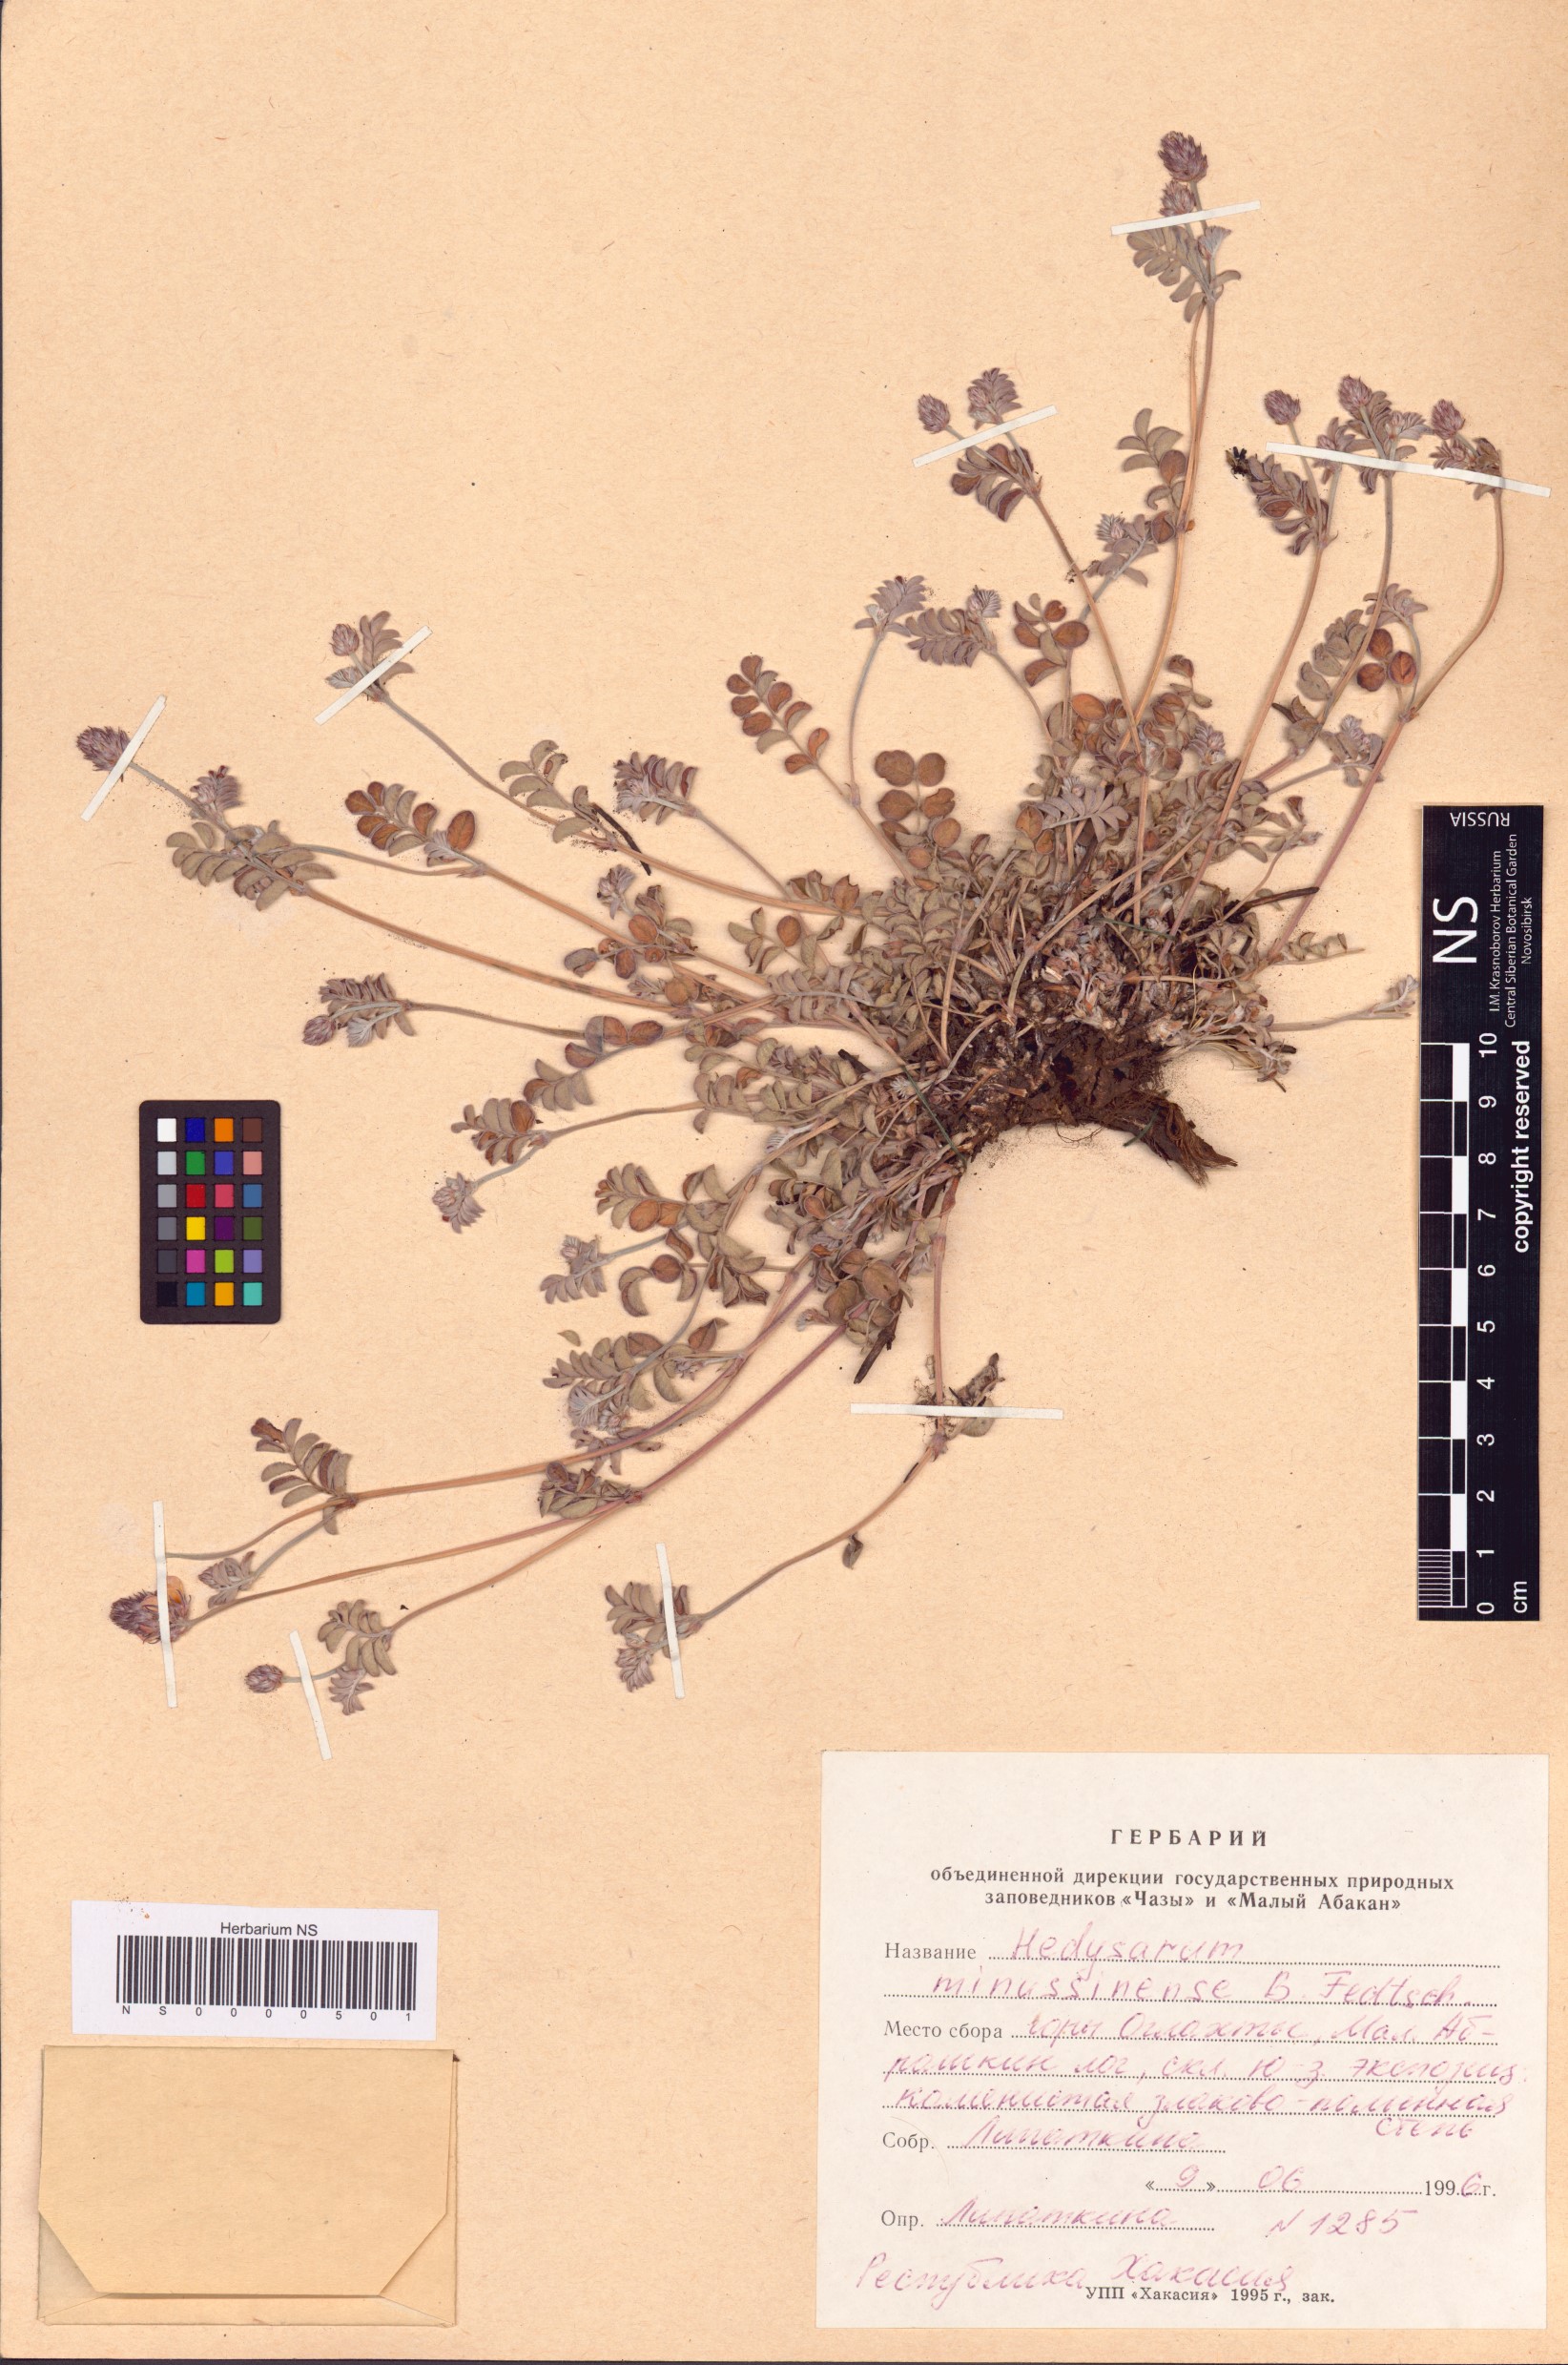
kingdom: Plantae
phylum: Tracheophyta
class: Magnoliopsida
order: Fabales
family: Fabaceae
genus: Hedysarum
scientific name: Hedysarum minussinense
